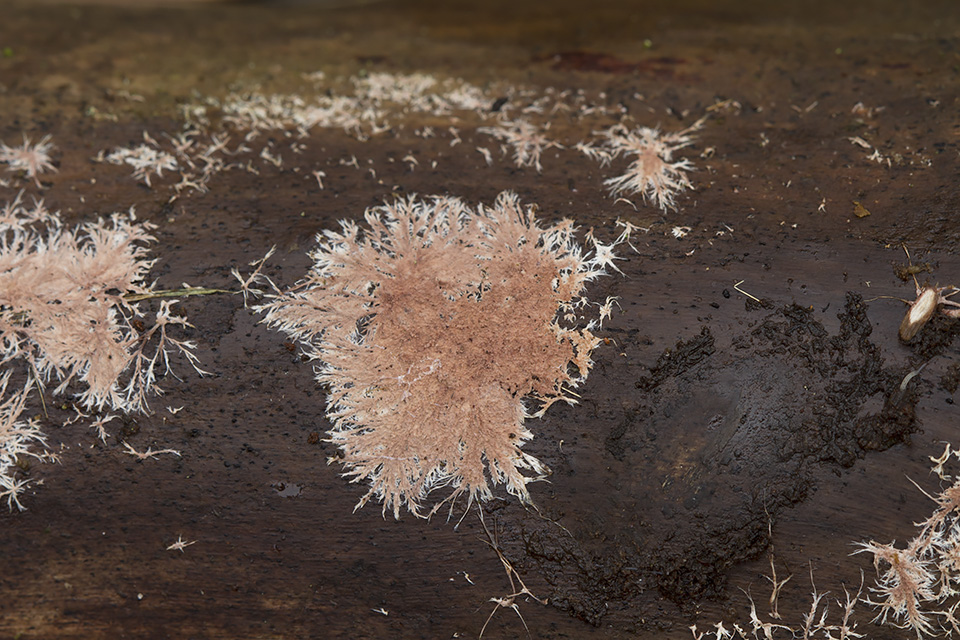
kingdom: Fungi
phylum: Basidiomycota
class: Agaricomycetes
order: Polyporales
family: Steccherinaceae
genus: Steccherinum
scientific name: Steccherinum fimbriatum
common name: trådet skønpig
